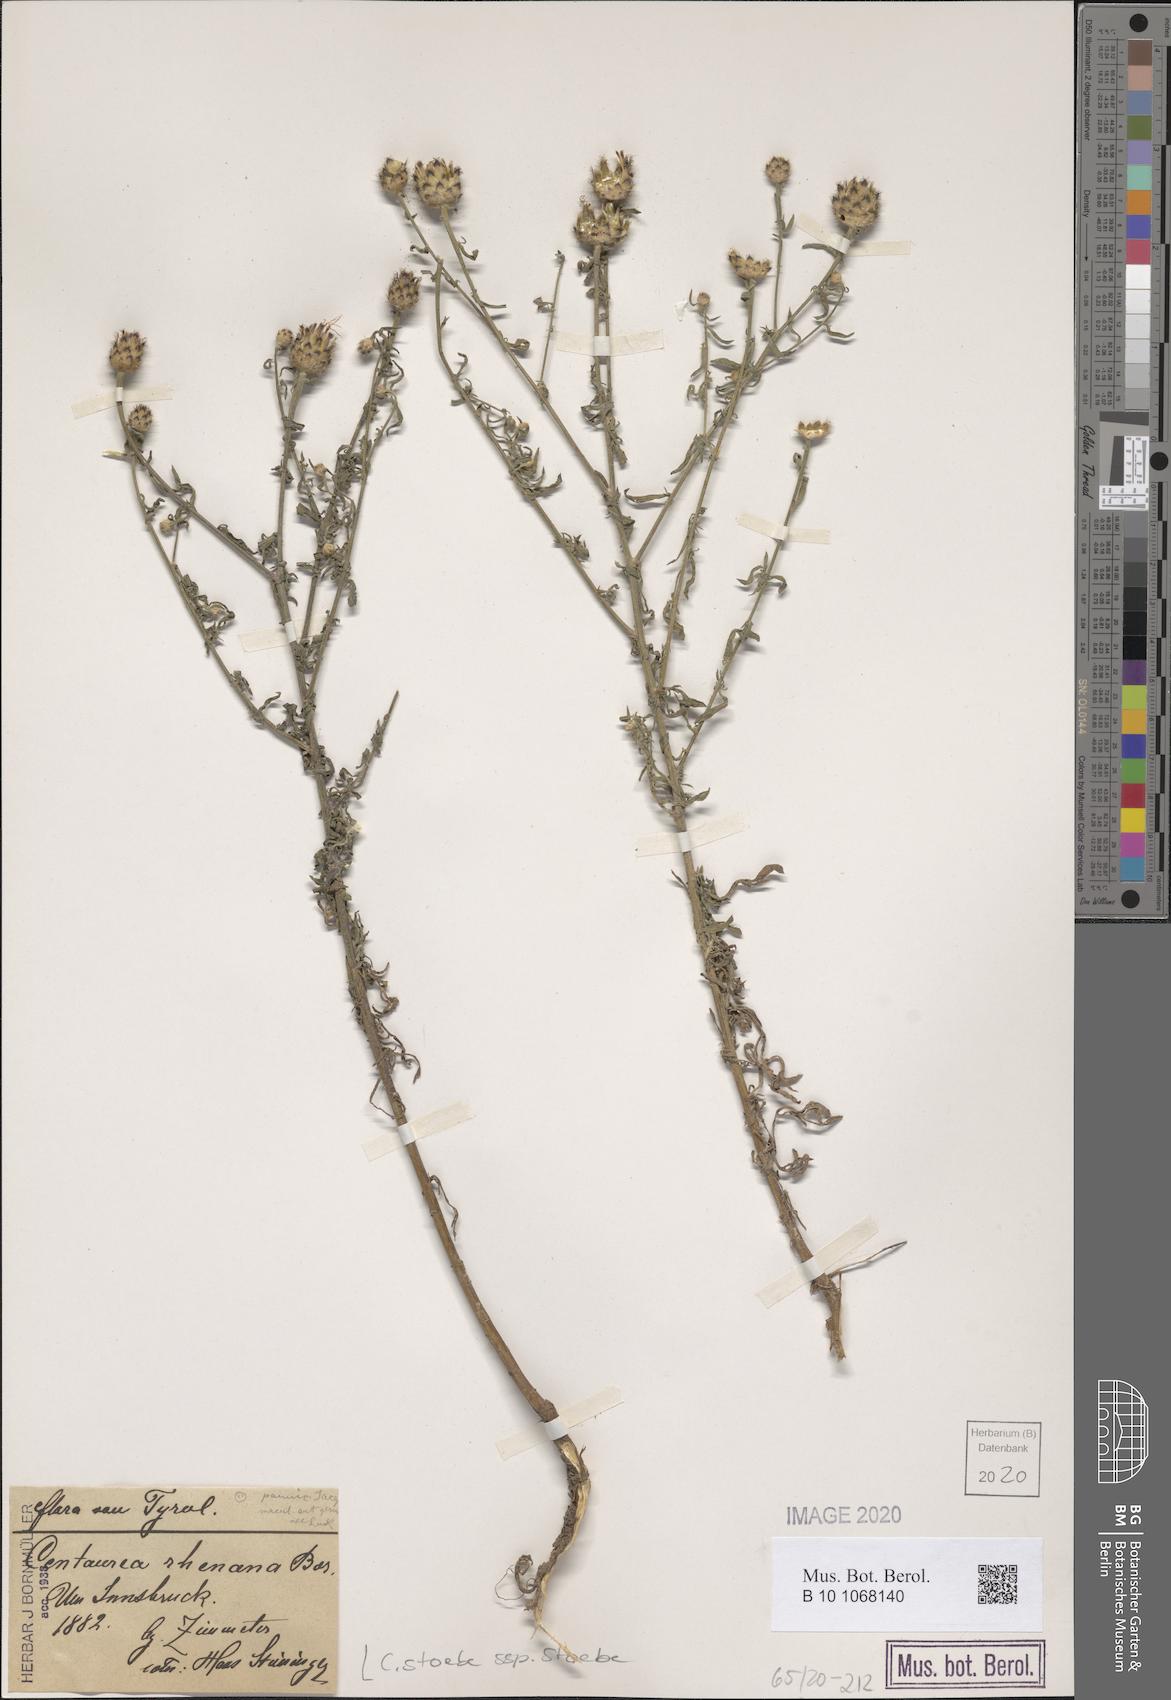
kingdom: Plantae
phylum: Tracheophyta
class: Magnoliopsida
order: Asterales
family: Asteraceae
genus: Centaurea
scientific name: Centaurea stoebe
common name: Spotted knapweed
